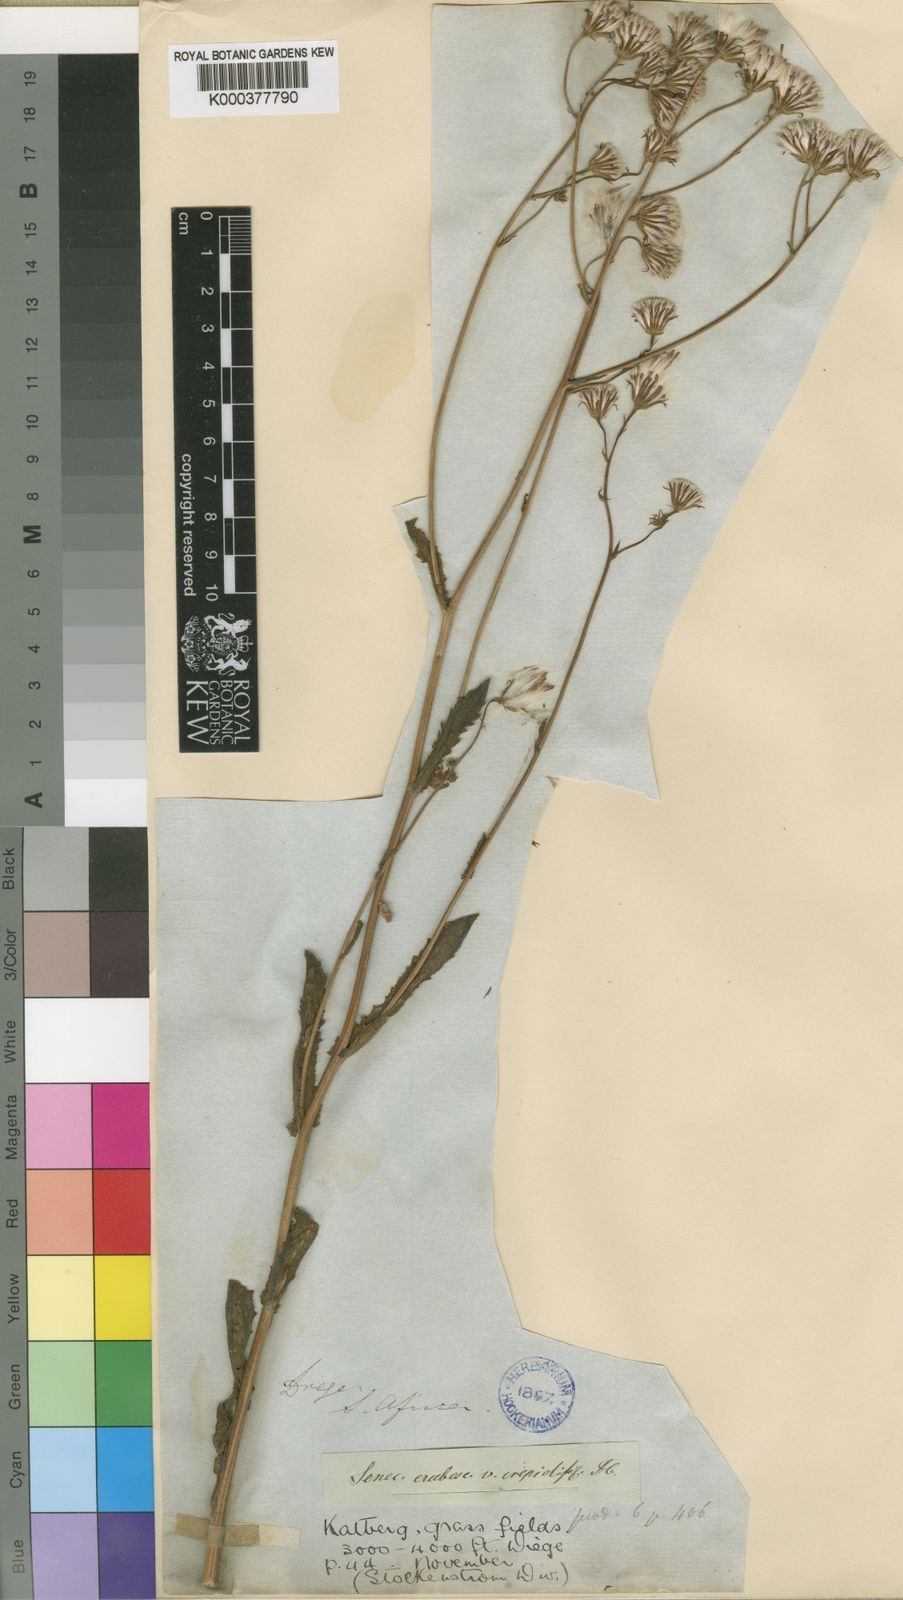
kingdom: Plantae
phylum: Tracheophyta
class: Magnoliopsida
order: Asterales
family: Asteraceae
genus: Senecio
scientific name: Senecio erubescens
